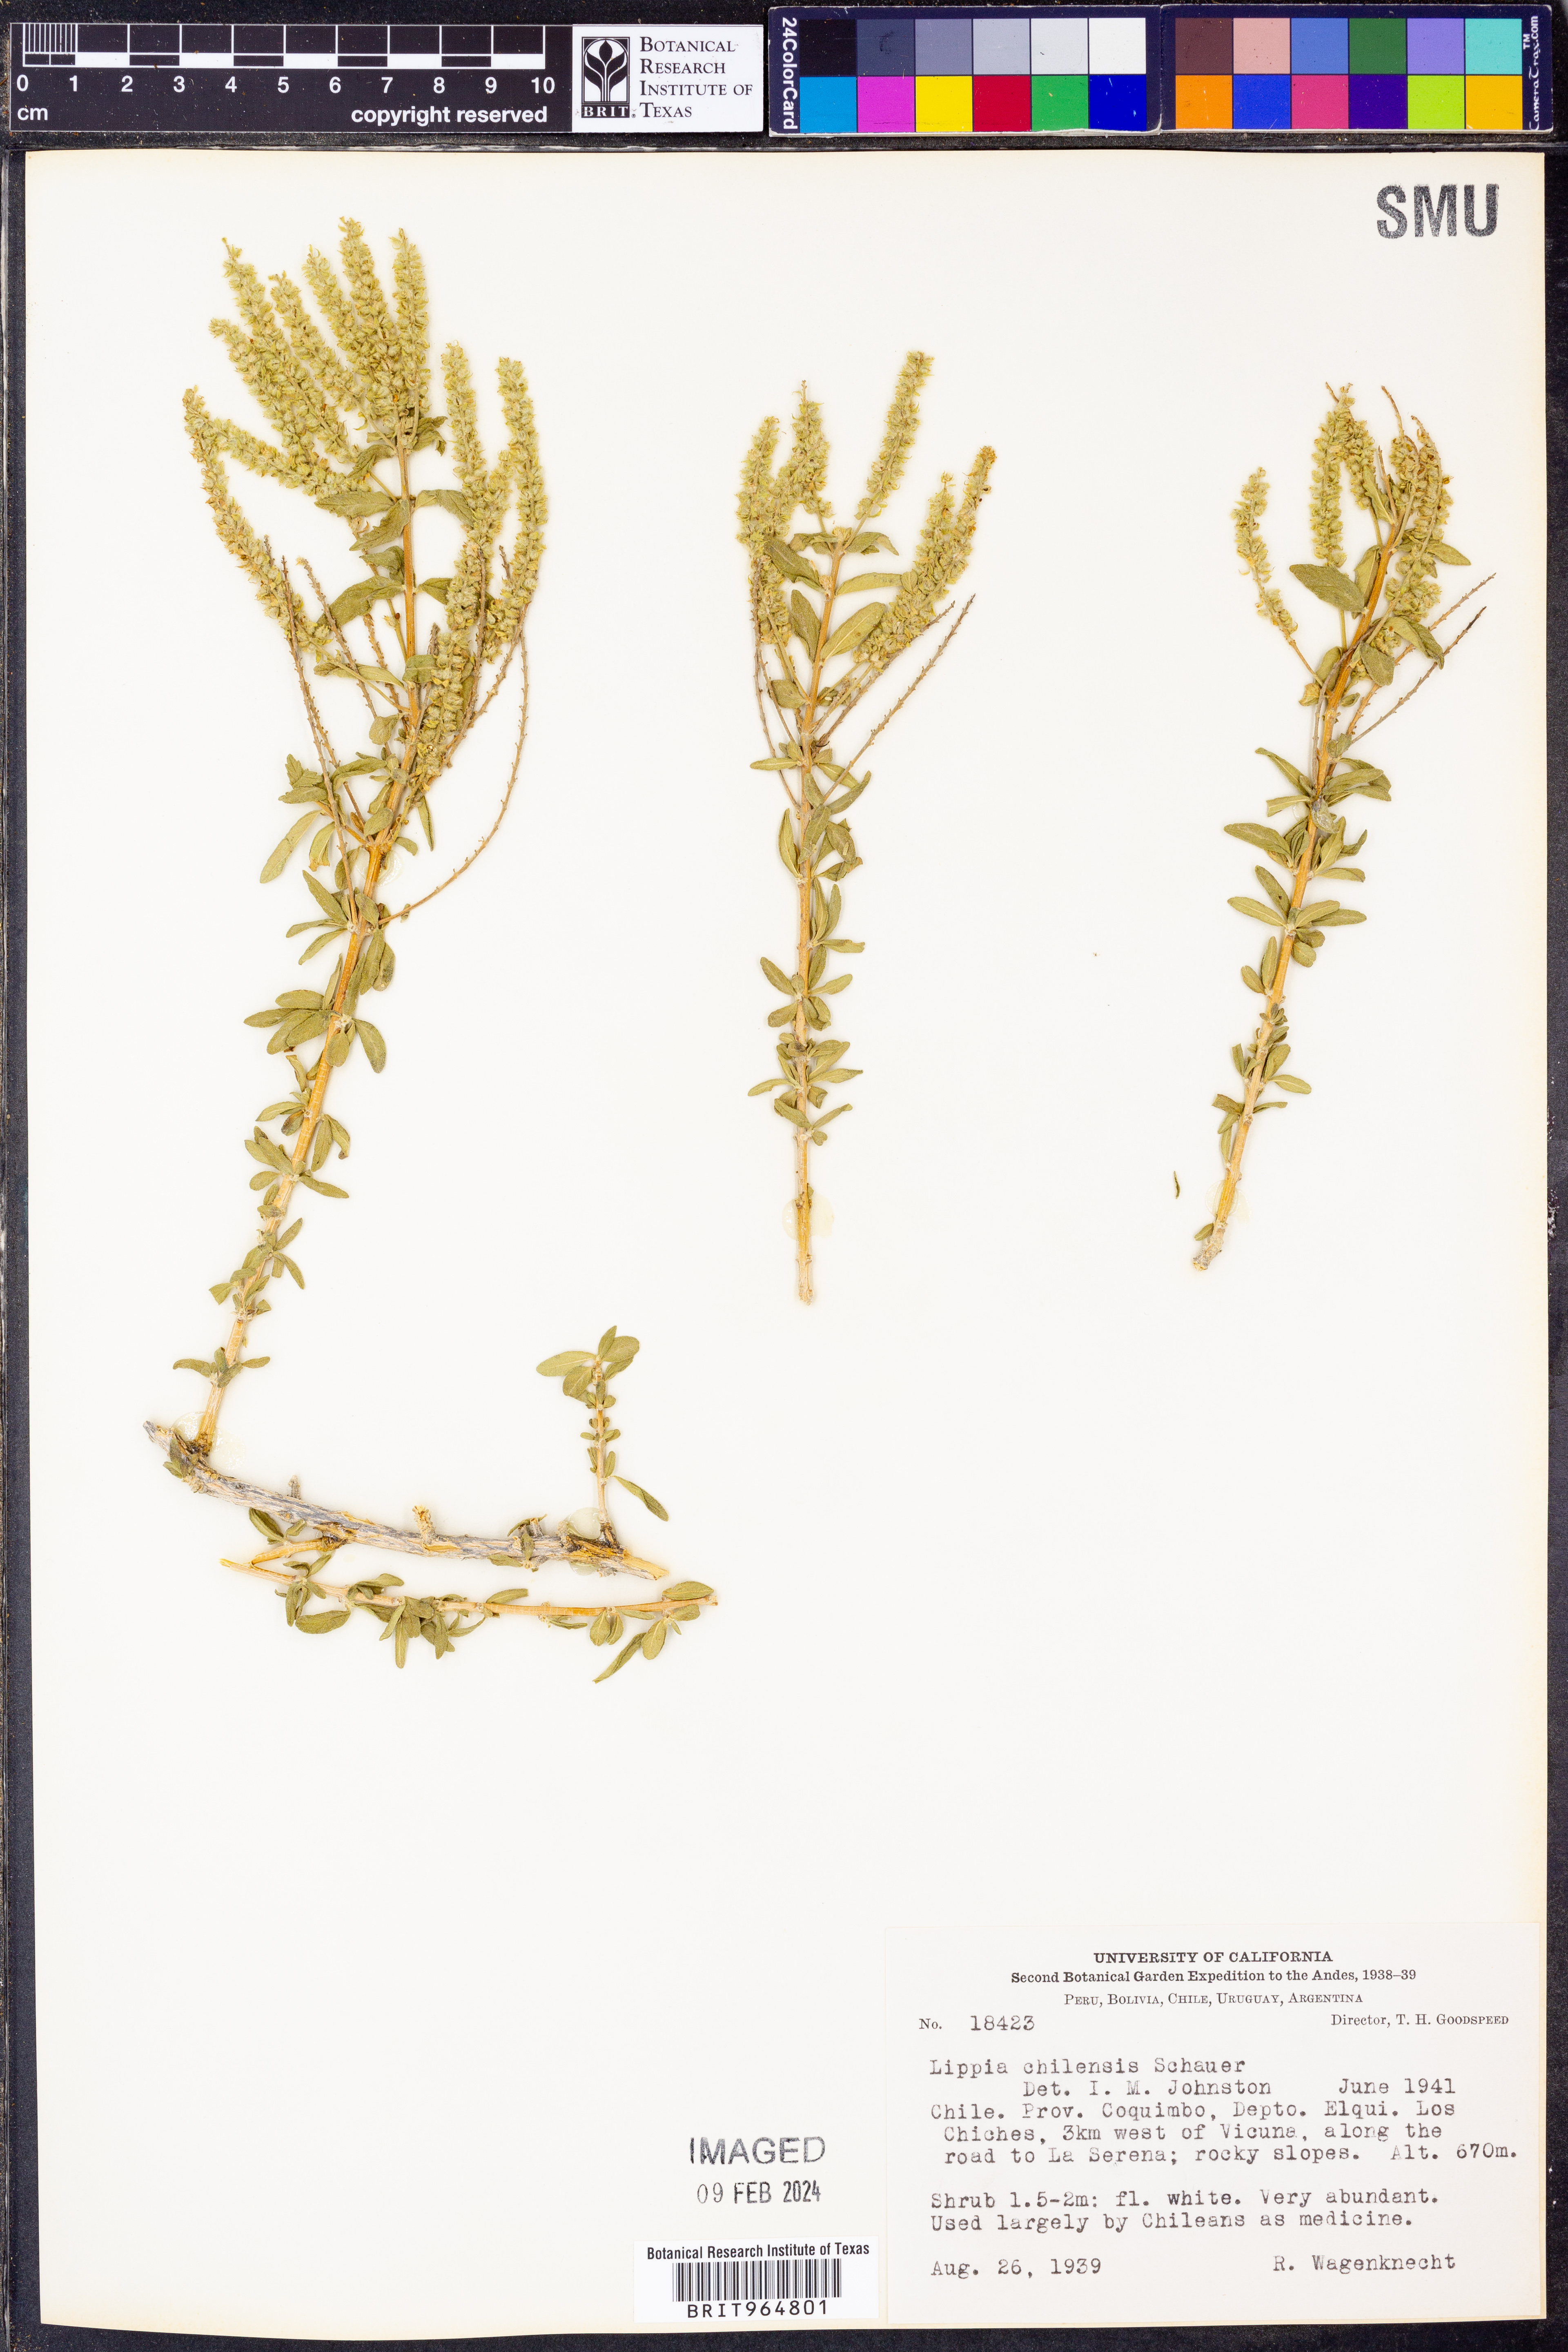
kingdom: Plantae
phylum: Tracheophyta
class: Magnoliopsida
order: Lamiales
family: Verbenaceae
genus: Aloysia
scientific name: Aloysia
